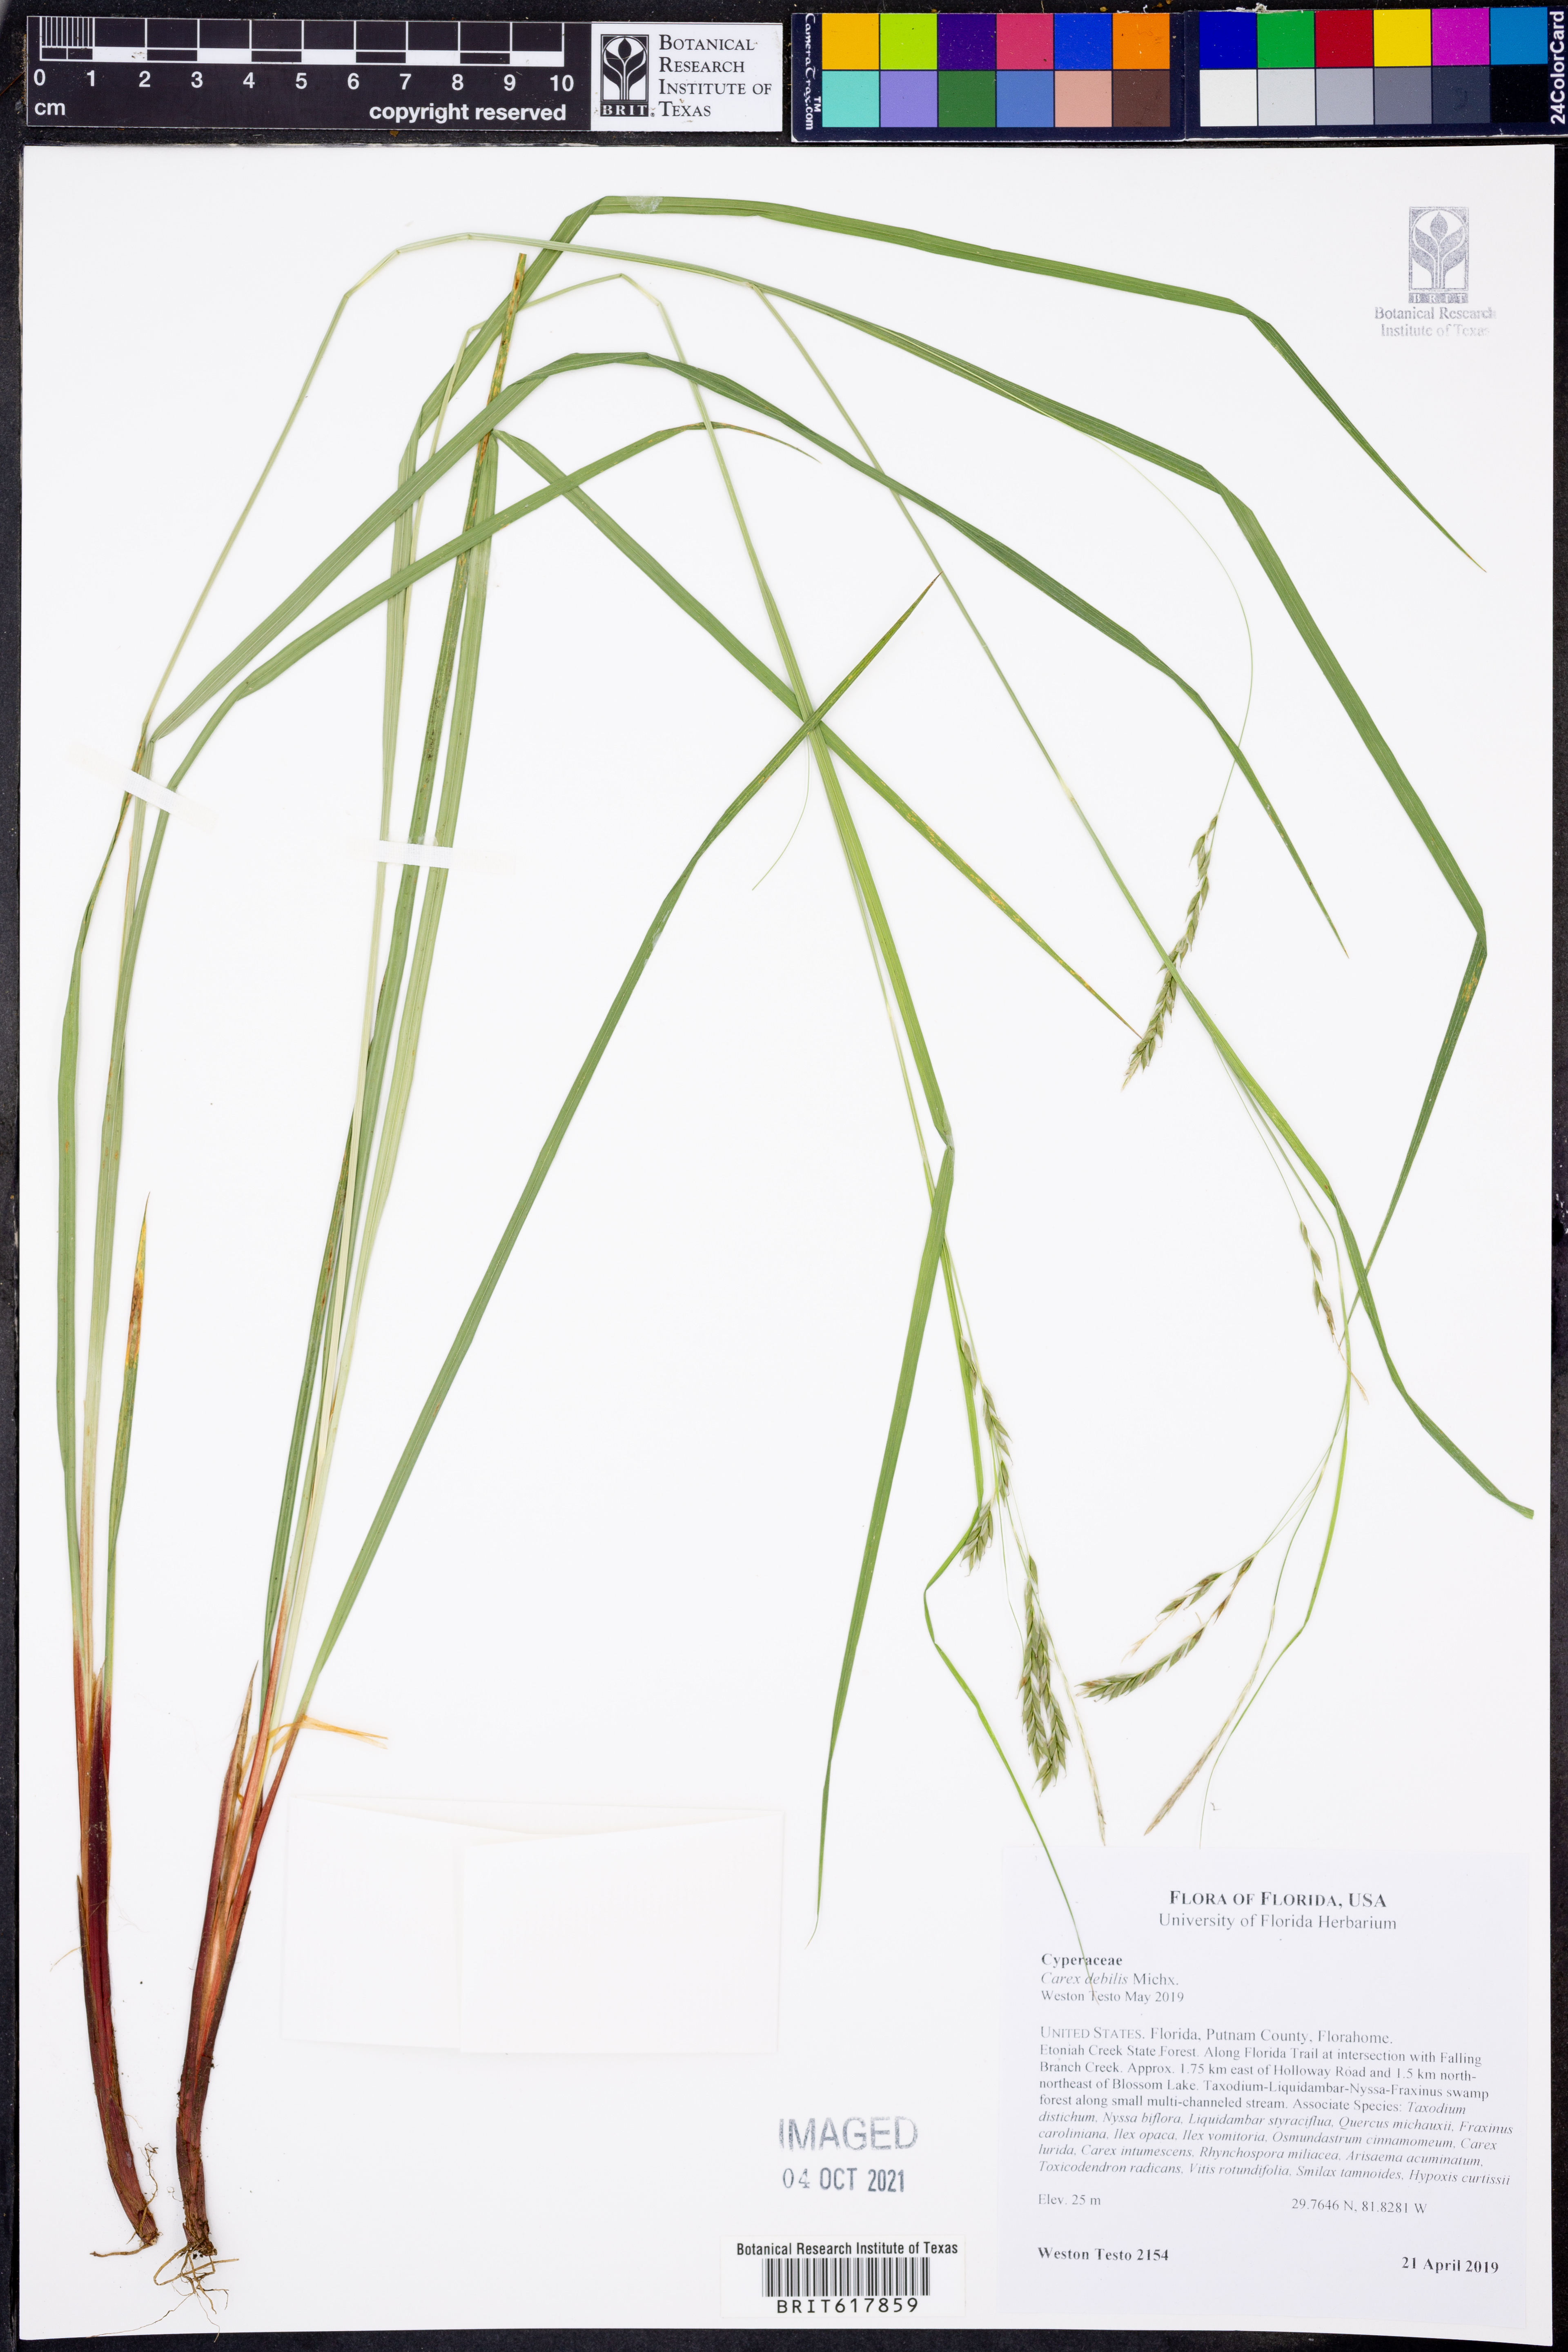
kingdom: Plantae
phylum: Tracheophyta
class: Liliopsida
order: Poales
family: Cyperaceae
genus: Carex
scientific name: Carex debilis
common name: White-edge sedge
